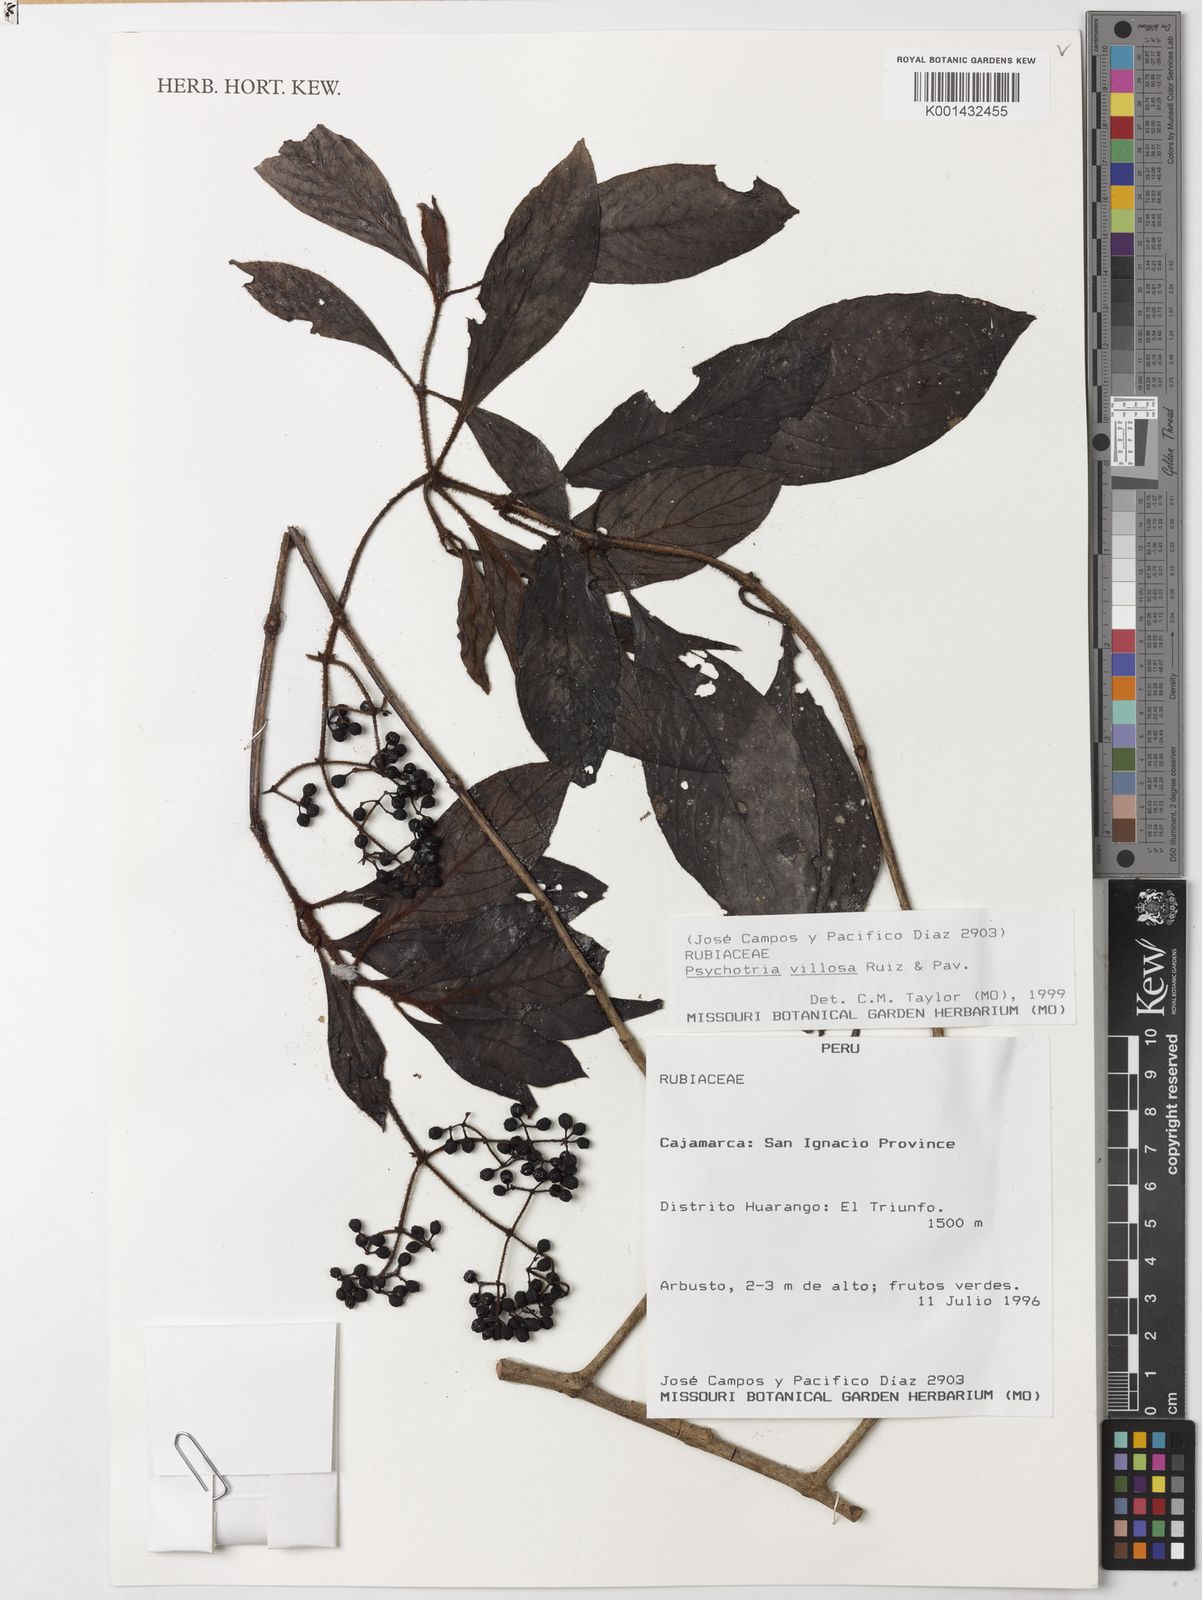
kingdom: Plantae
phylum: Tracheophyta
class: Magnoliopsida
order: Gentianales
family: Rubiaceae
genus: Psychotria
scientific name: Psychotria villosa
